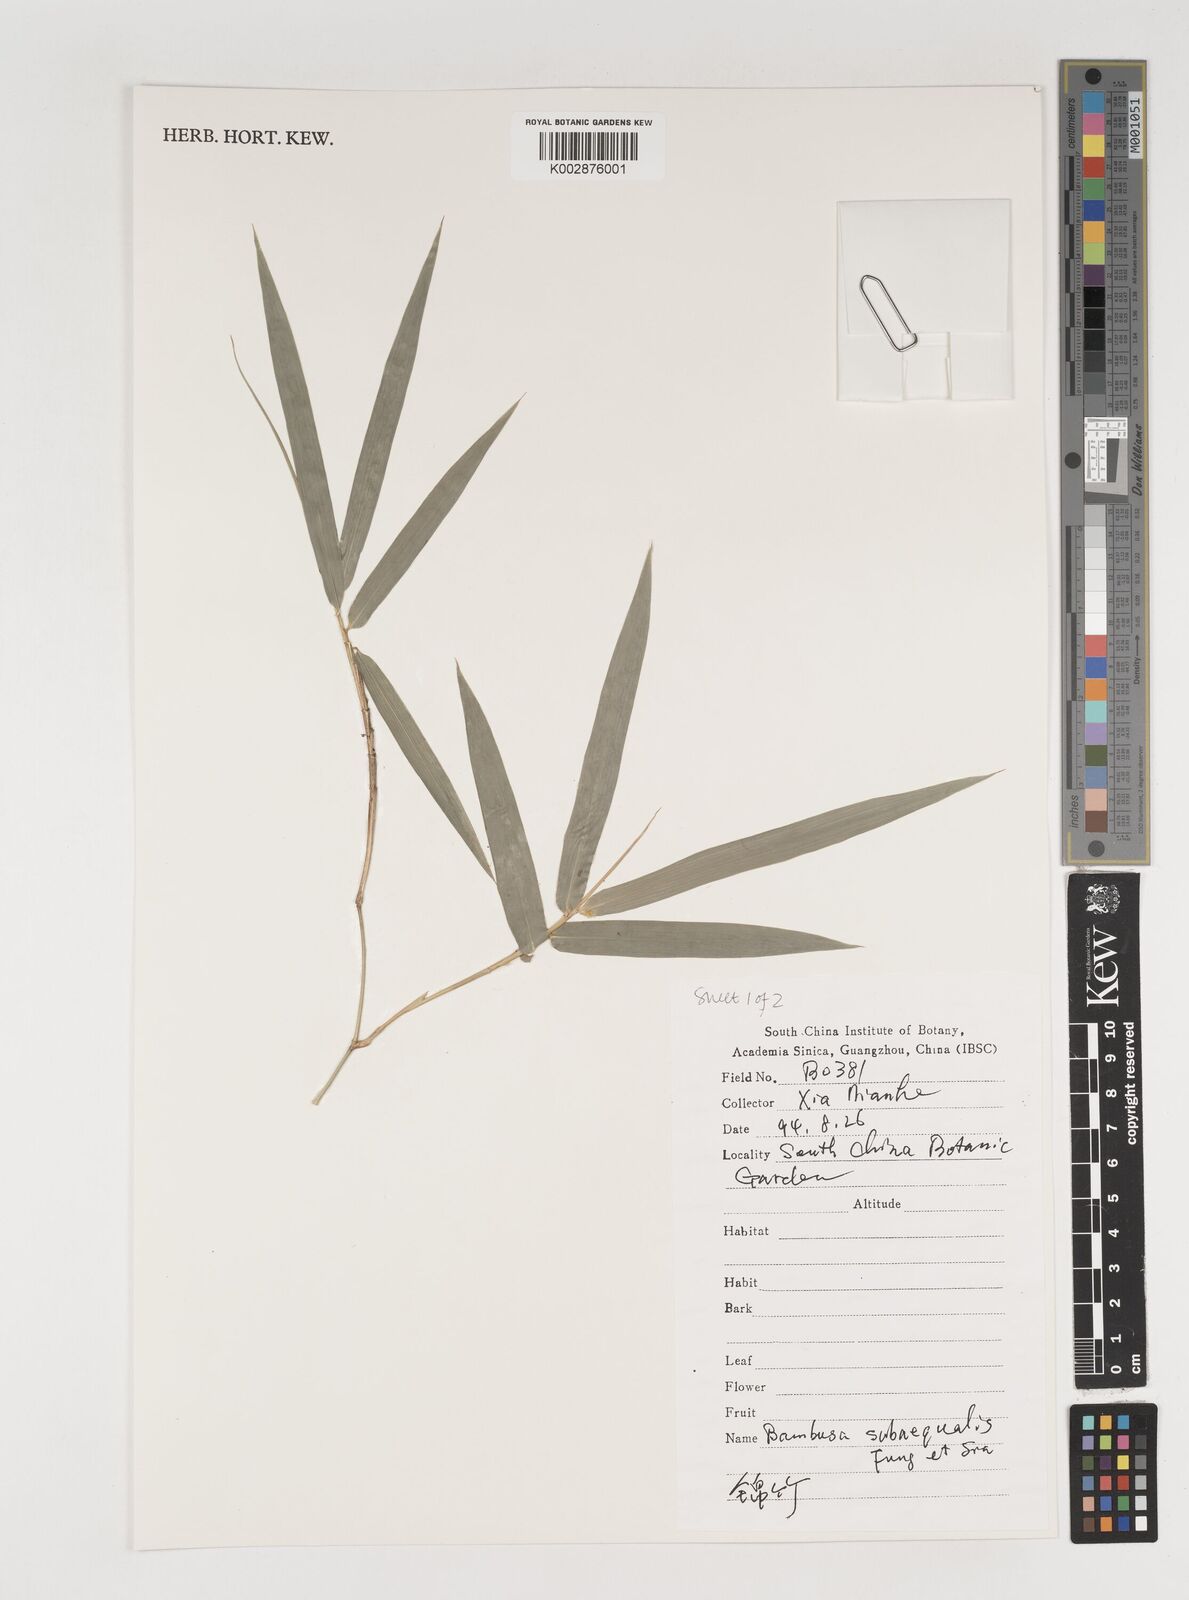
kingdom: Plantae
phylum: Tracheophyta
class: Liliopsida
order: Poales
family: Poaceae
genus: Bambusa
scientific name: Bambusa subaequalis
